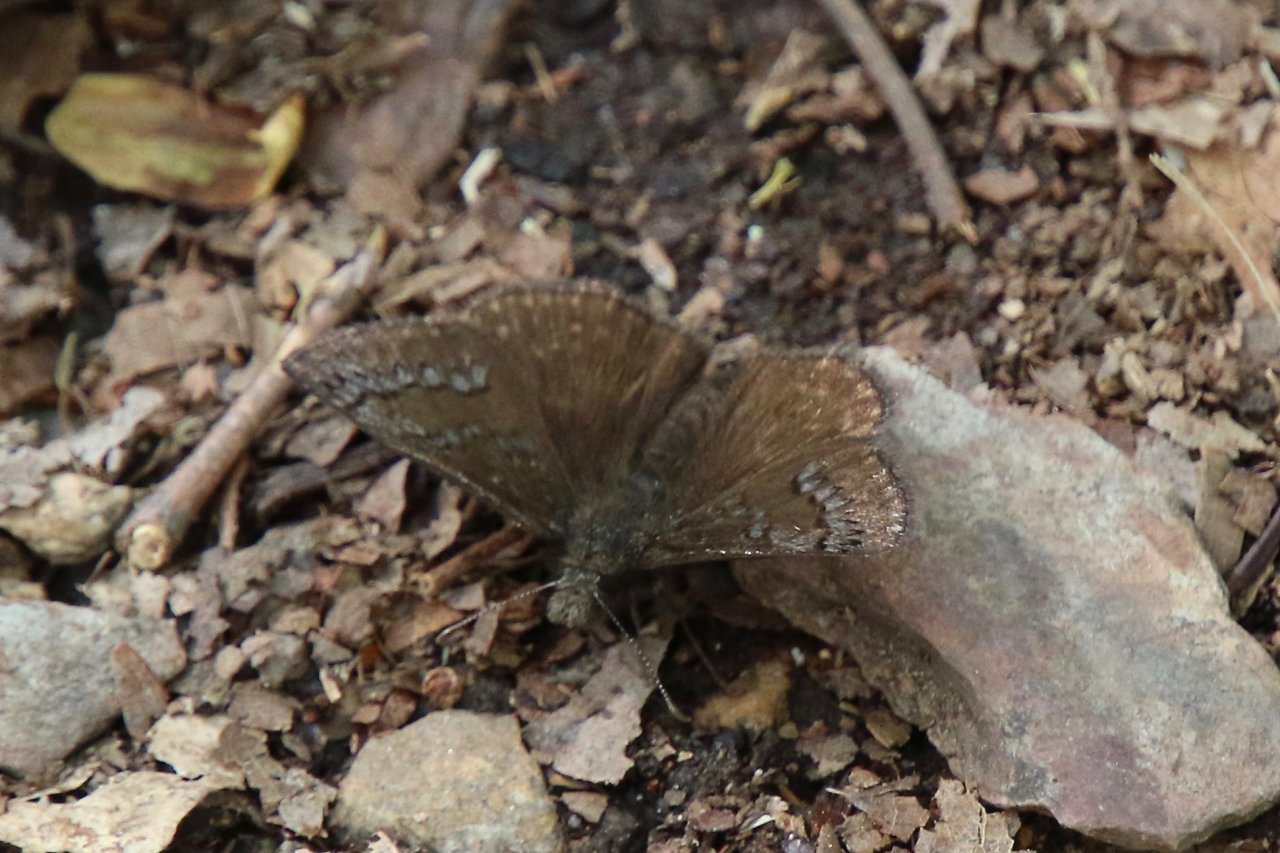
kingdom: Animalia
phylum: Arthropoda
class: Insecta
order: Lepidoptera
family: Hesperiidae
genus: Erynnis
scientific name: Erynnis brizo
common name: Sleepy Duskywing
